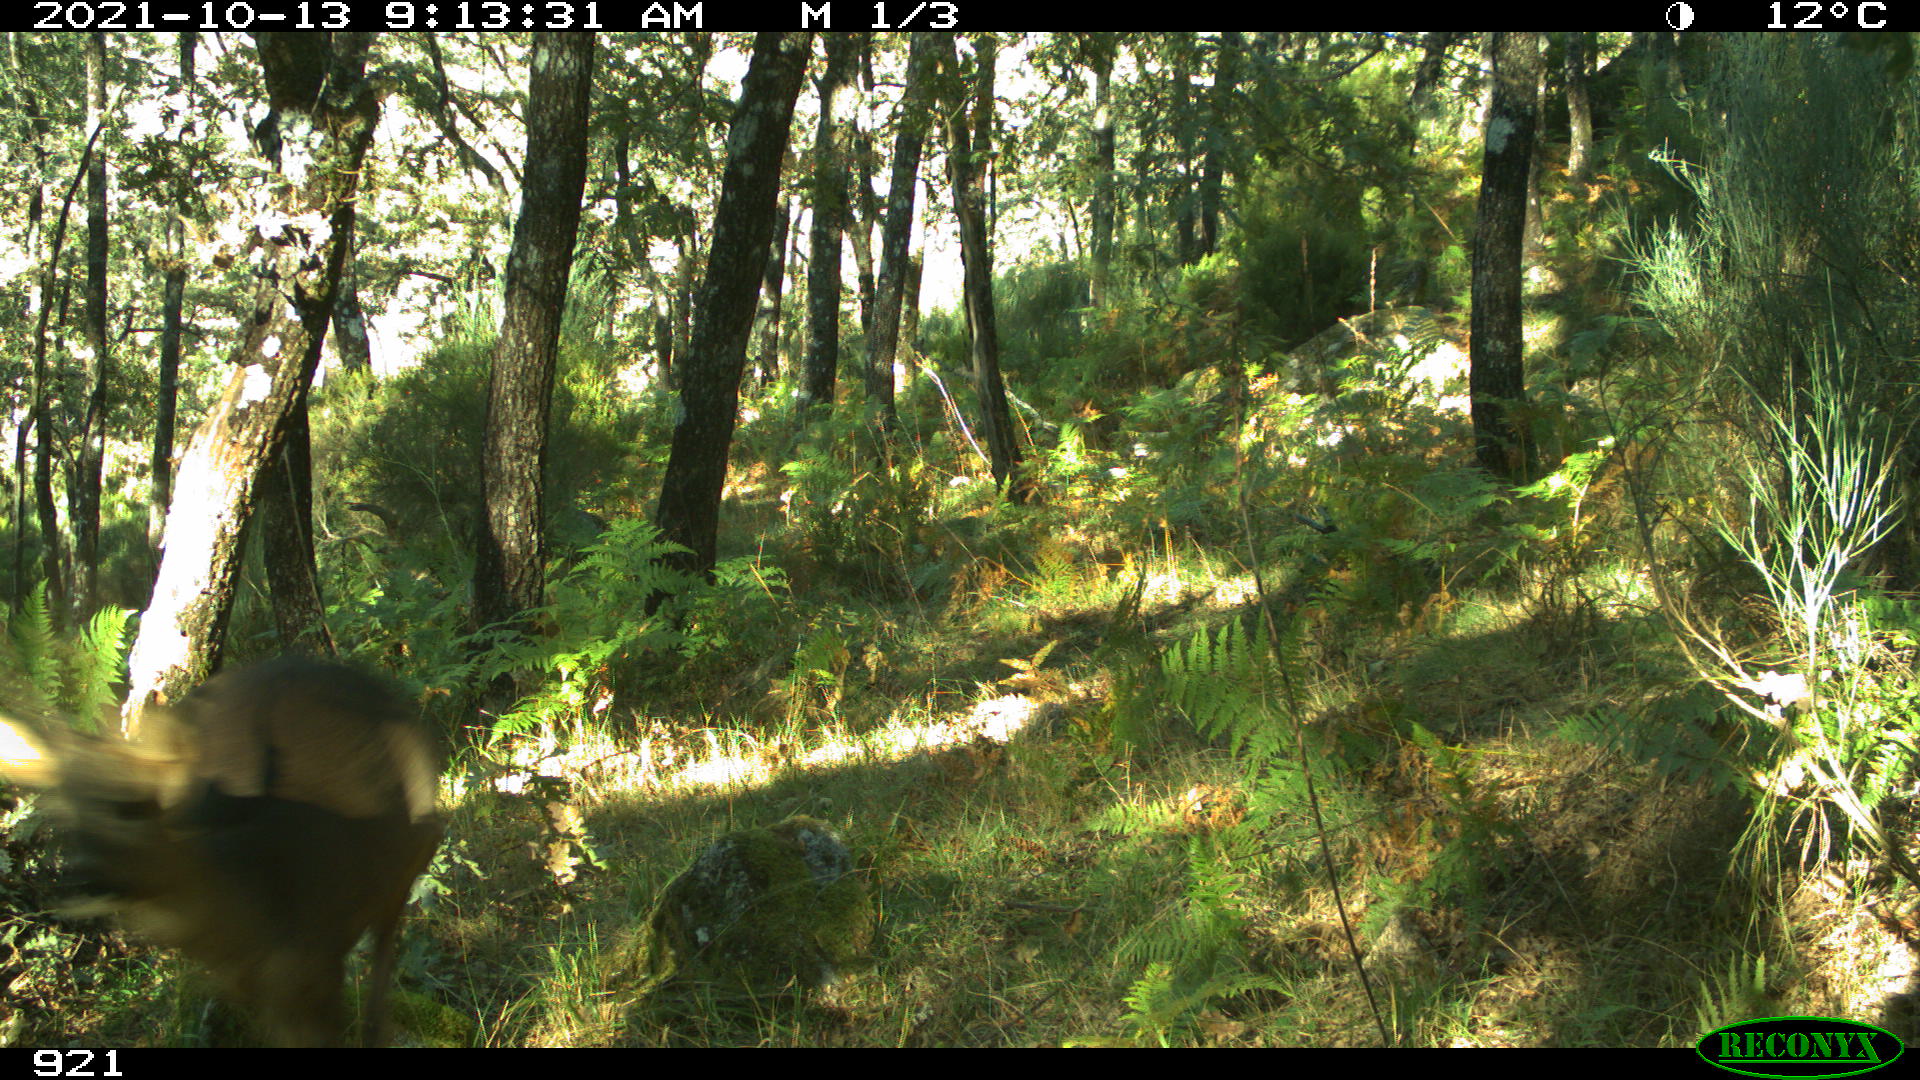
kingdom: Animalia
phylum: Chordata
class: Mammalia
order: Artiodactyla
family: Cervidae
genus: Capreolus
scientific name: Capreolus capreolus
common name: Western roe deer
